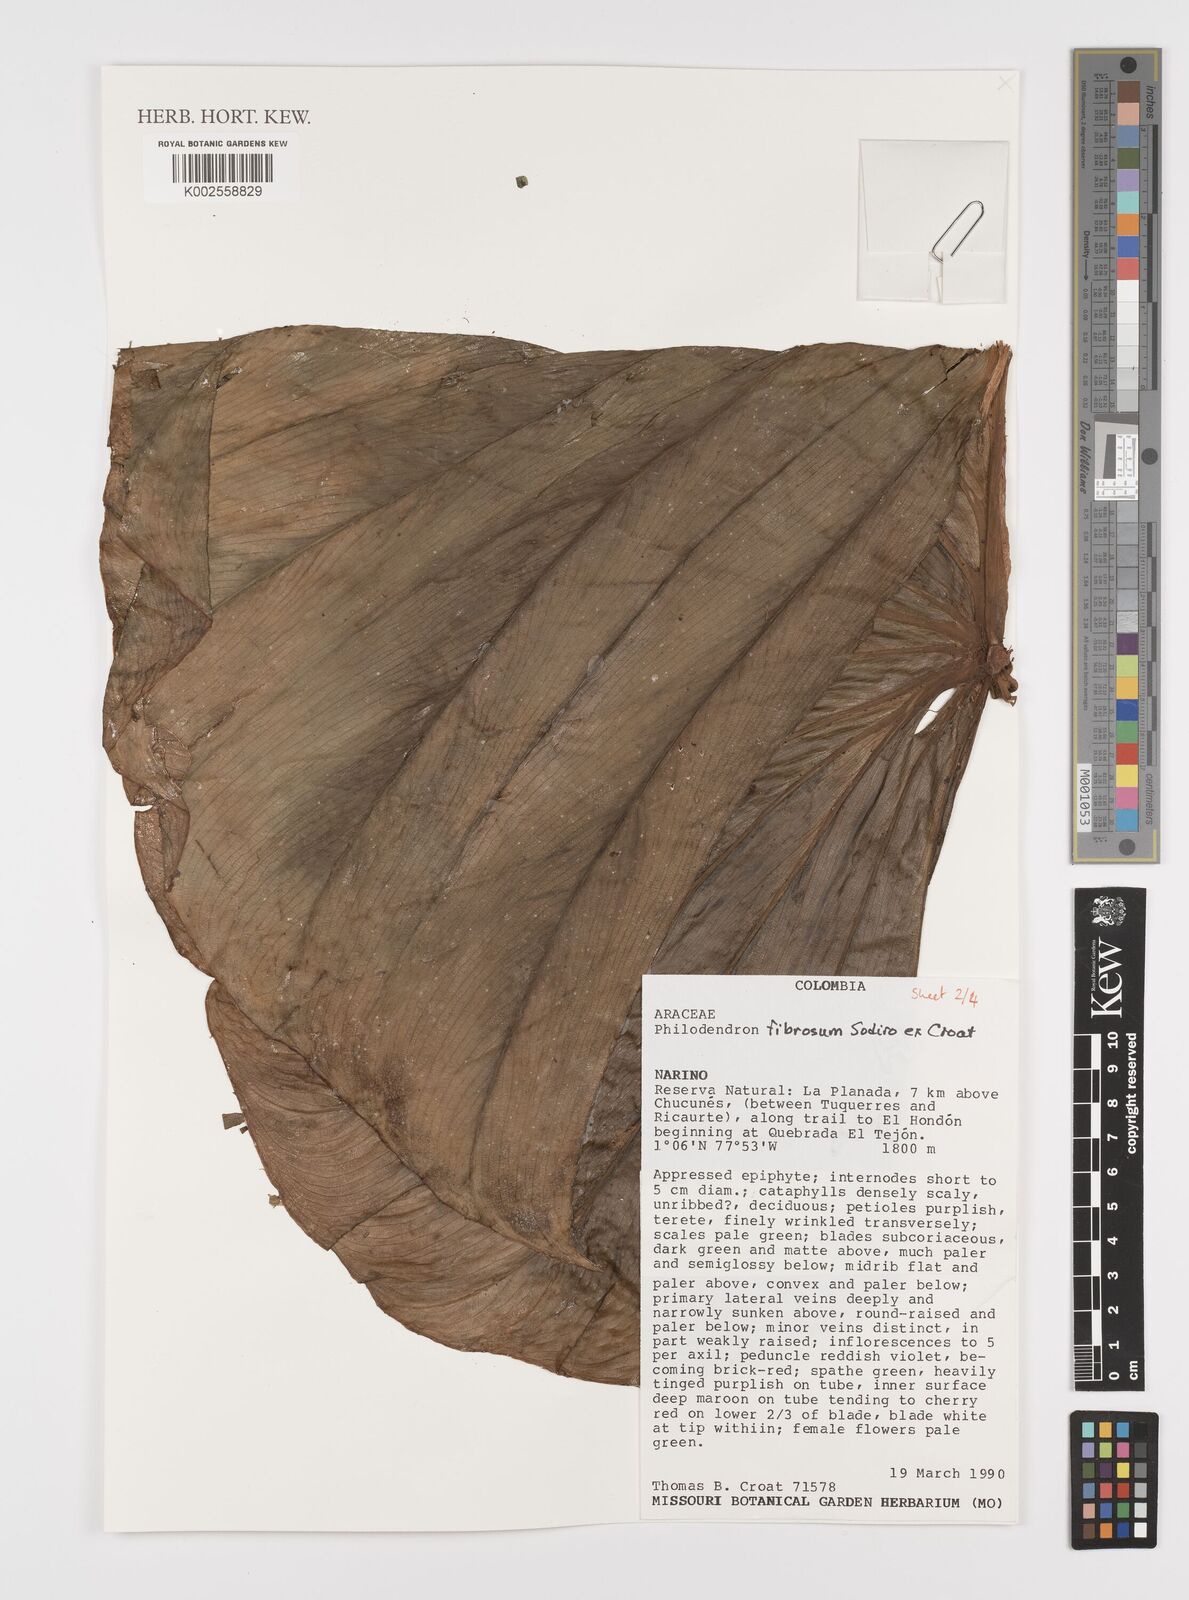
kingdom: Plantae
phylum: Tracheophyta
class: Liliopsida
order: Alismatales
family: Araceae
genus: Philodendron
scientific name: Philodendron fibrosum
